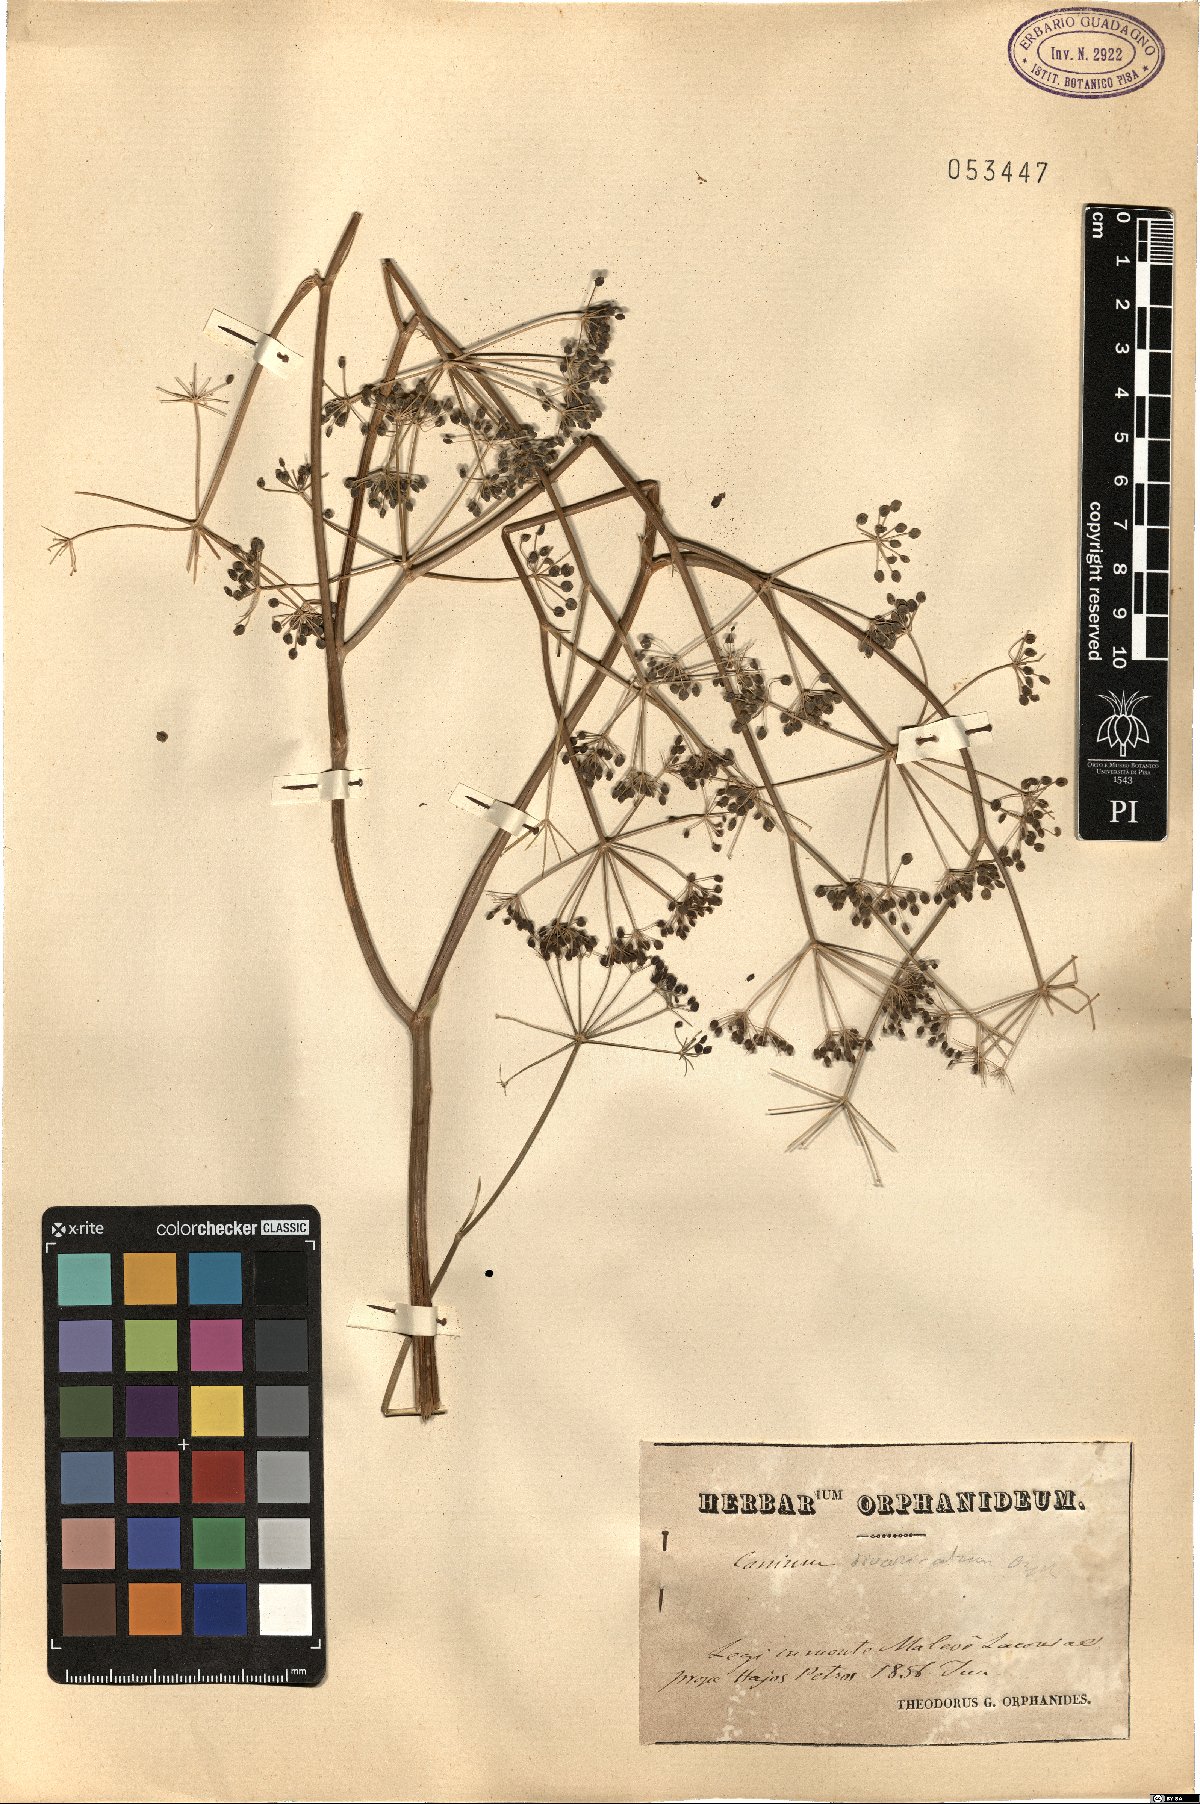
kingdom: Plantae
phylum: Tracheophyta
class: Magnoliopsida
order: Apiales
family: Apiaceae
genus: Conium
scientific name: Conium divaricatum
